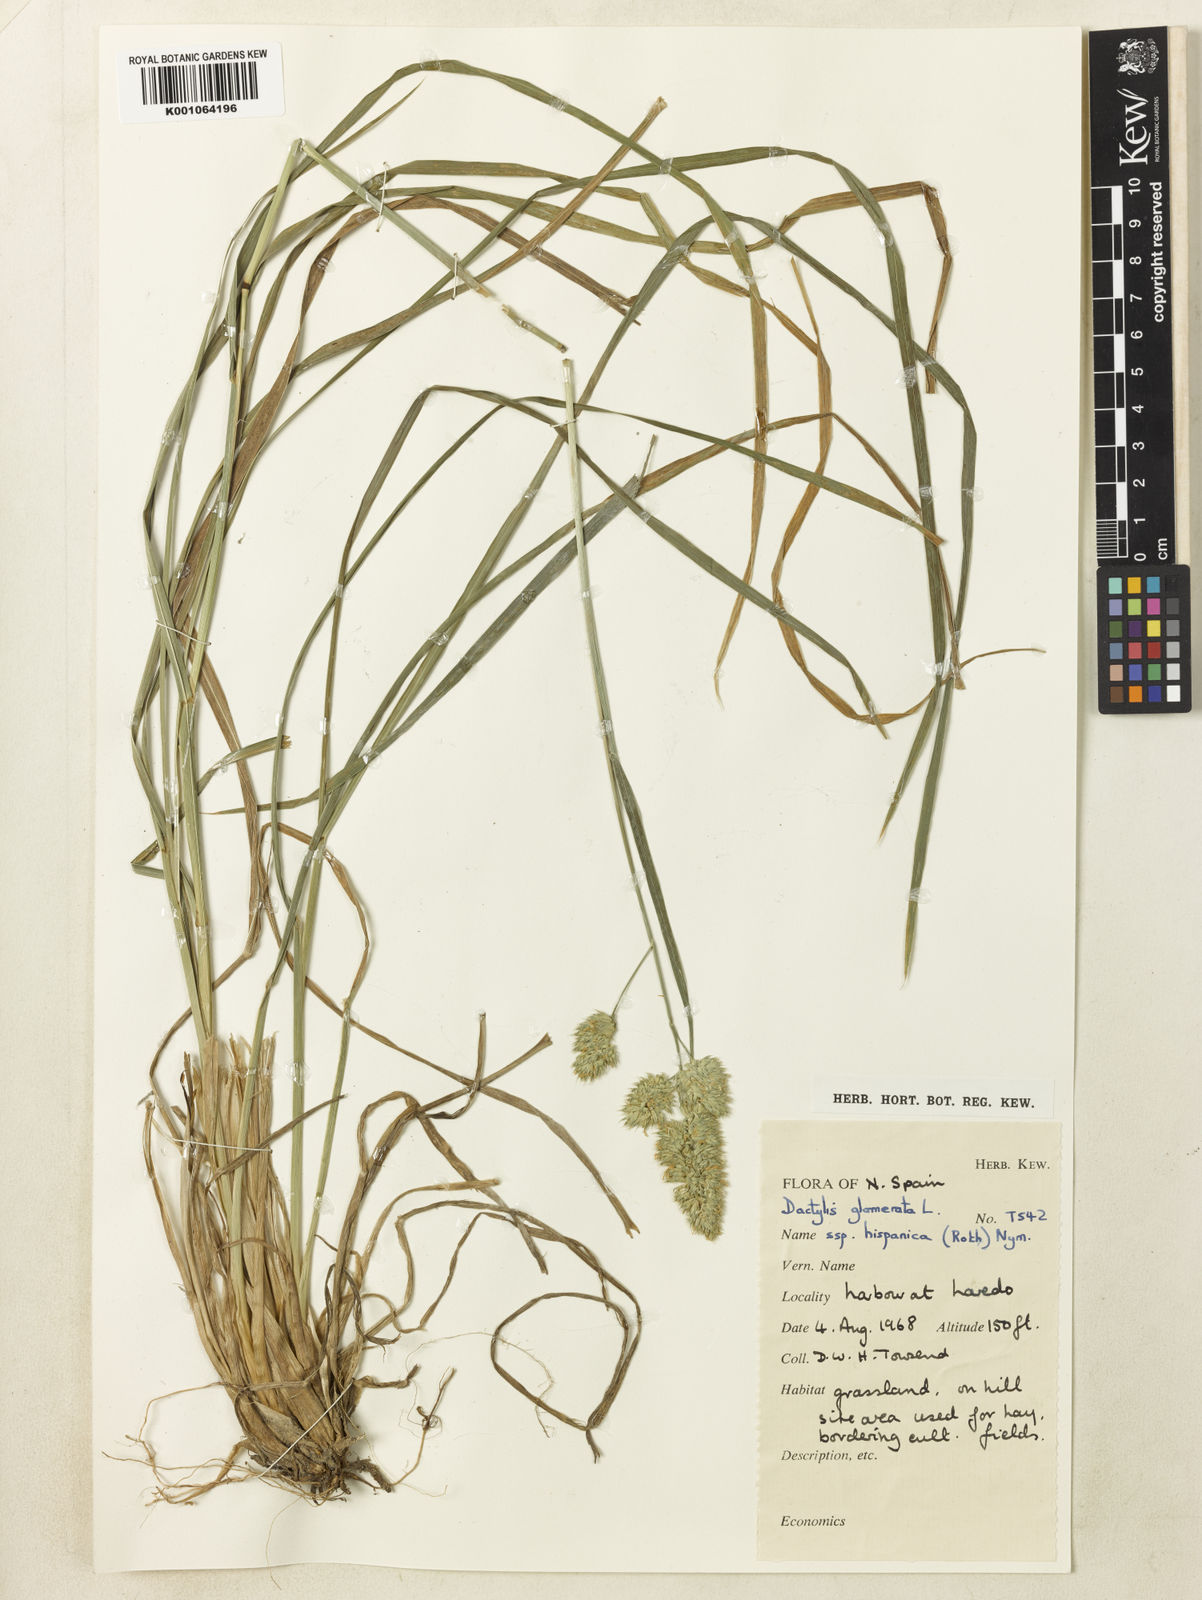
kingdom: Plantae
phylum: Tracheophyta
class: Liliopsida
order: Poales
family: Poaceae
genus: Dactylis
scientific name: Dactylis glomerata
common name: Orchardgrass
